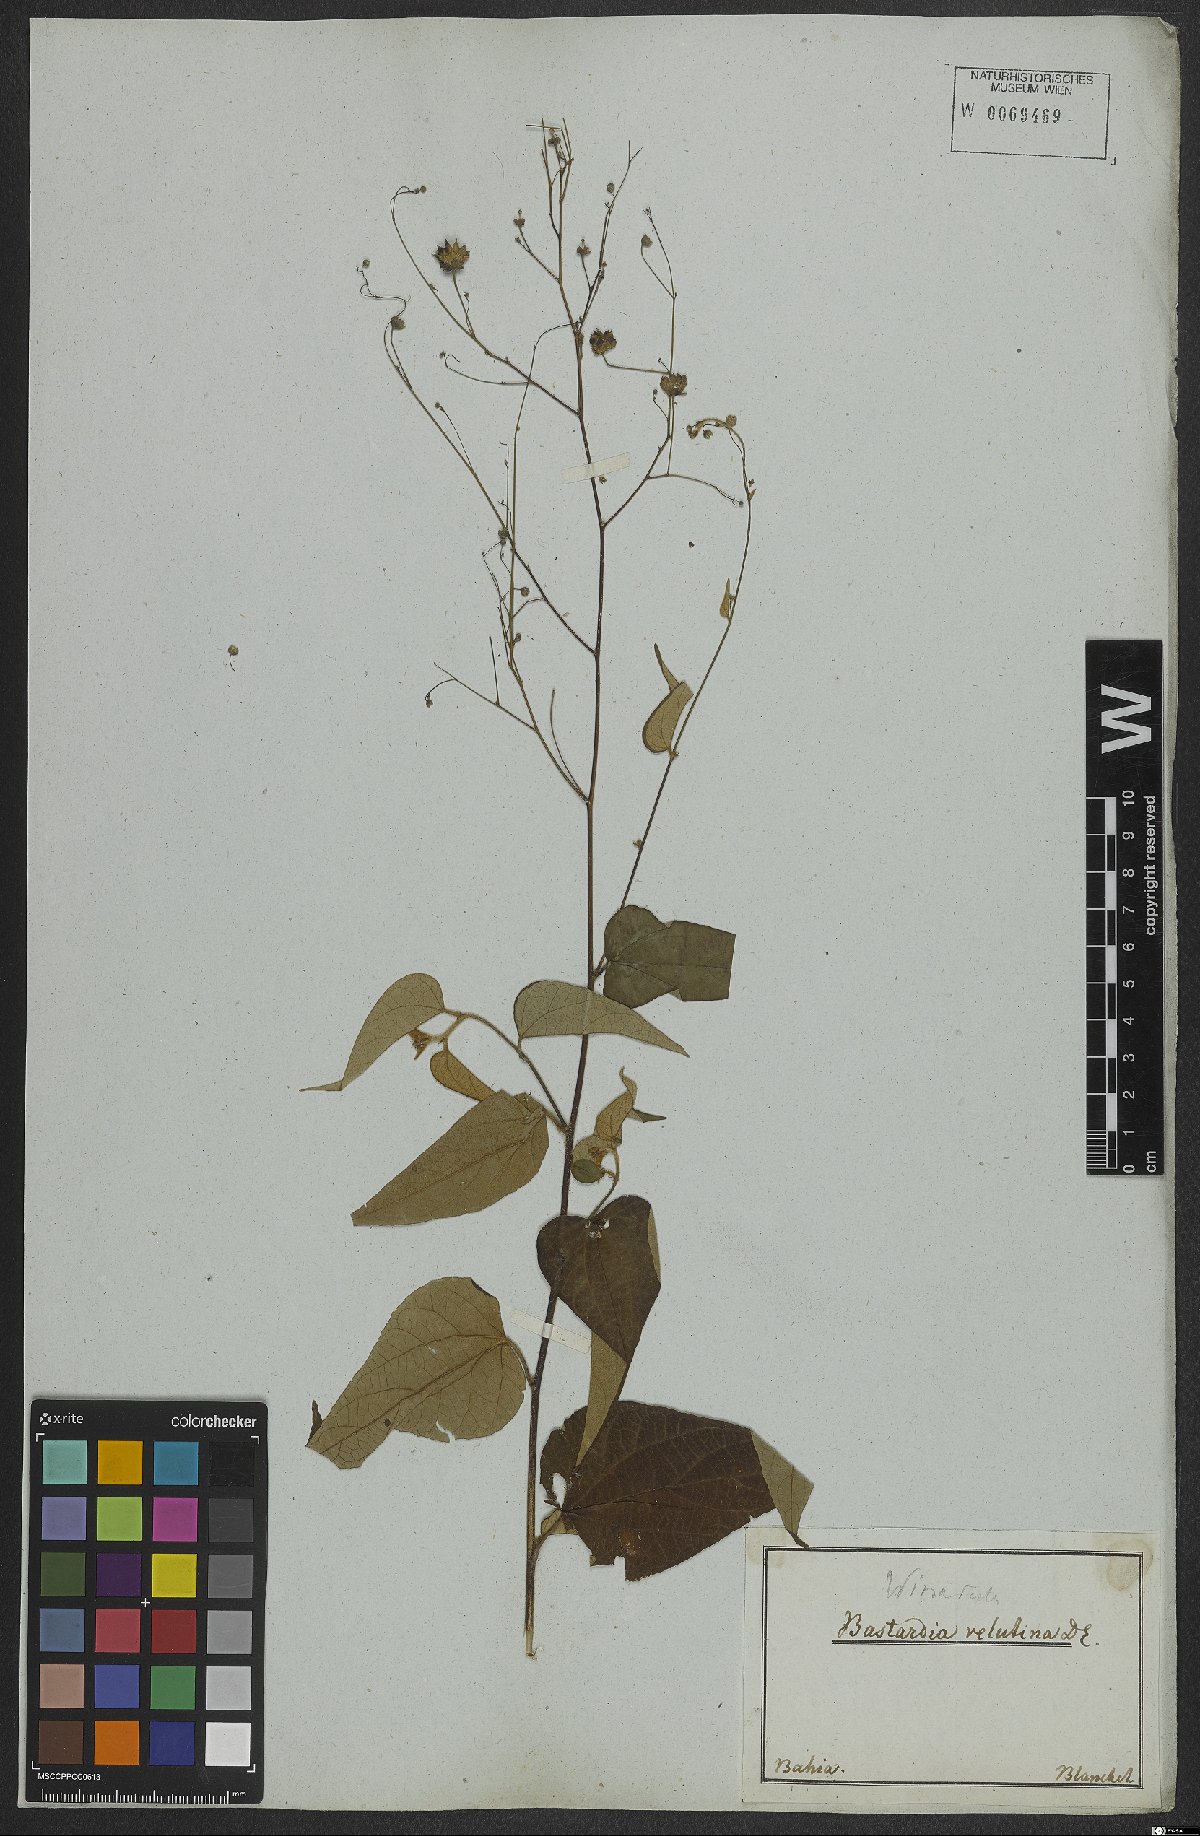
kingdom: Plantae
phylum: Tracheophyta
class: Magnoliopsida
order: Malvales
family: Malvaceae
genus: Wissadula
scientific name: Wissadula periplocifolia
